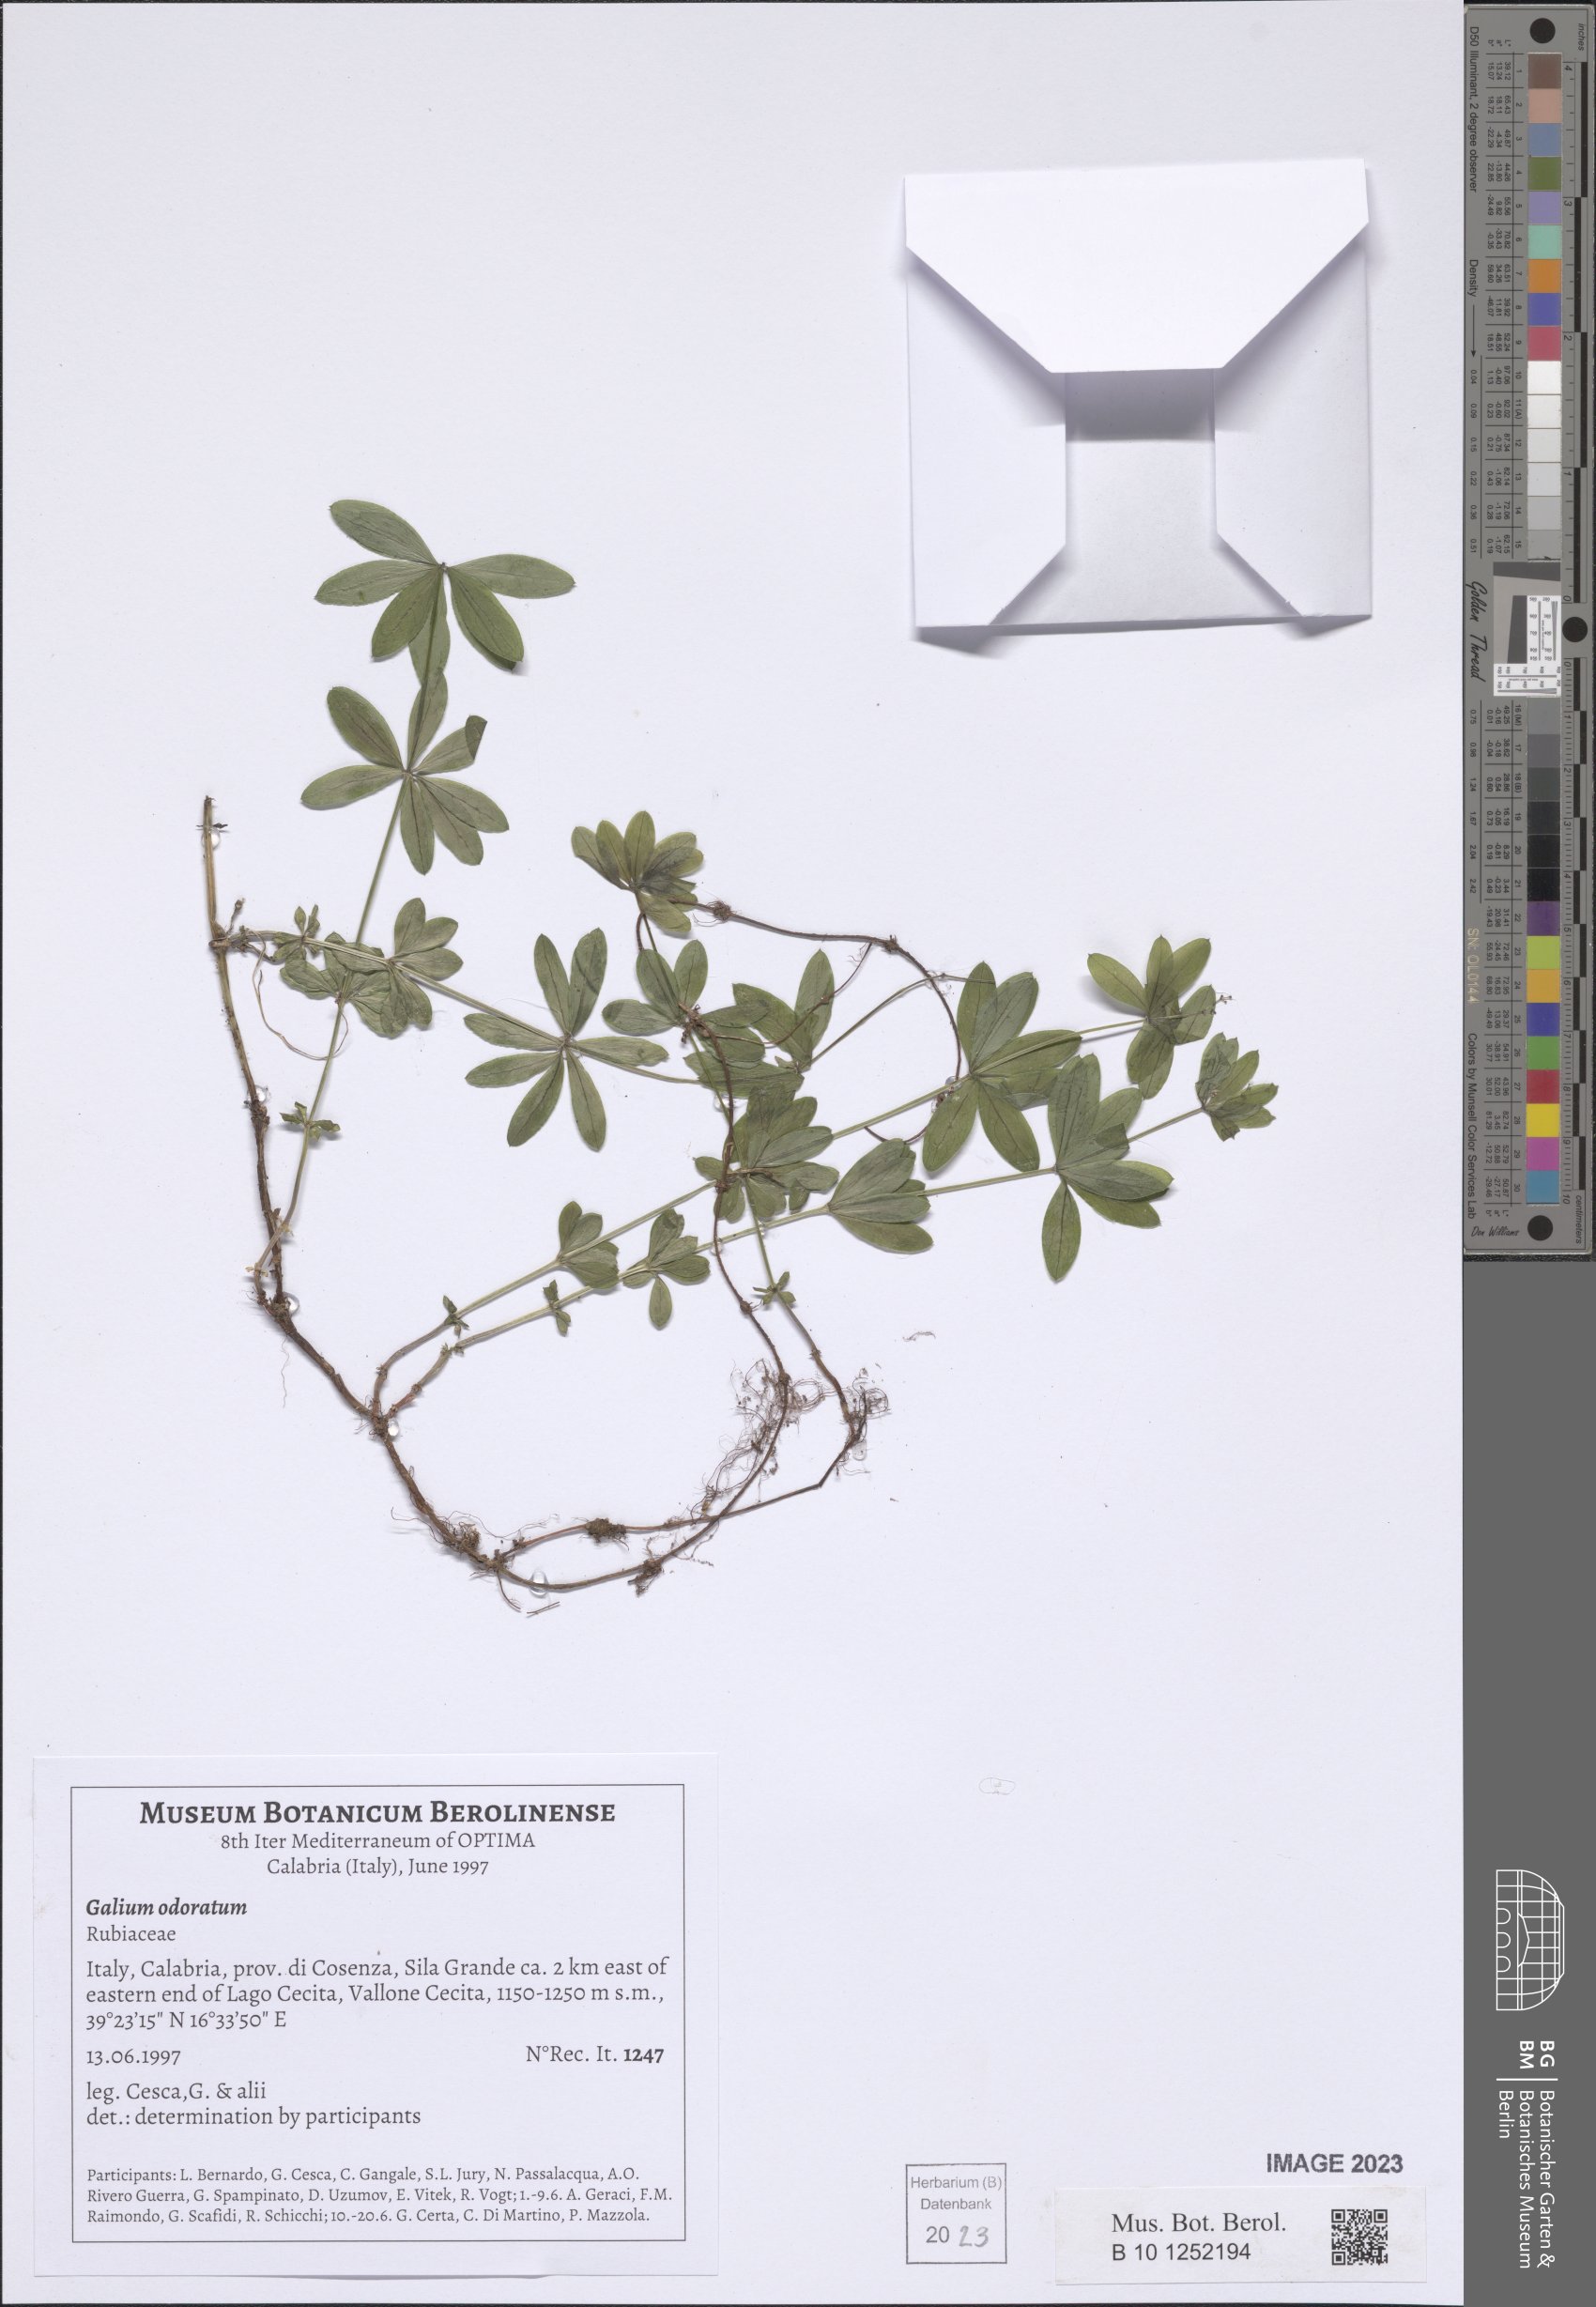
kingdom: Plantae
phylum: Tracheophyta
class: Magnoliopsida
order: Gentianales
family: Rubiaceae
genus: Galium
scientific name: Galium odoratum
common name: Sweet woodruff
